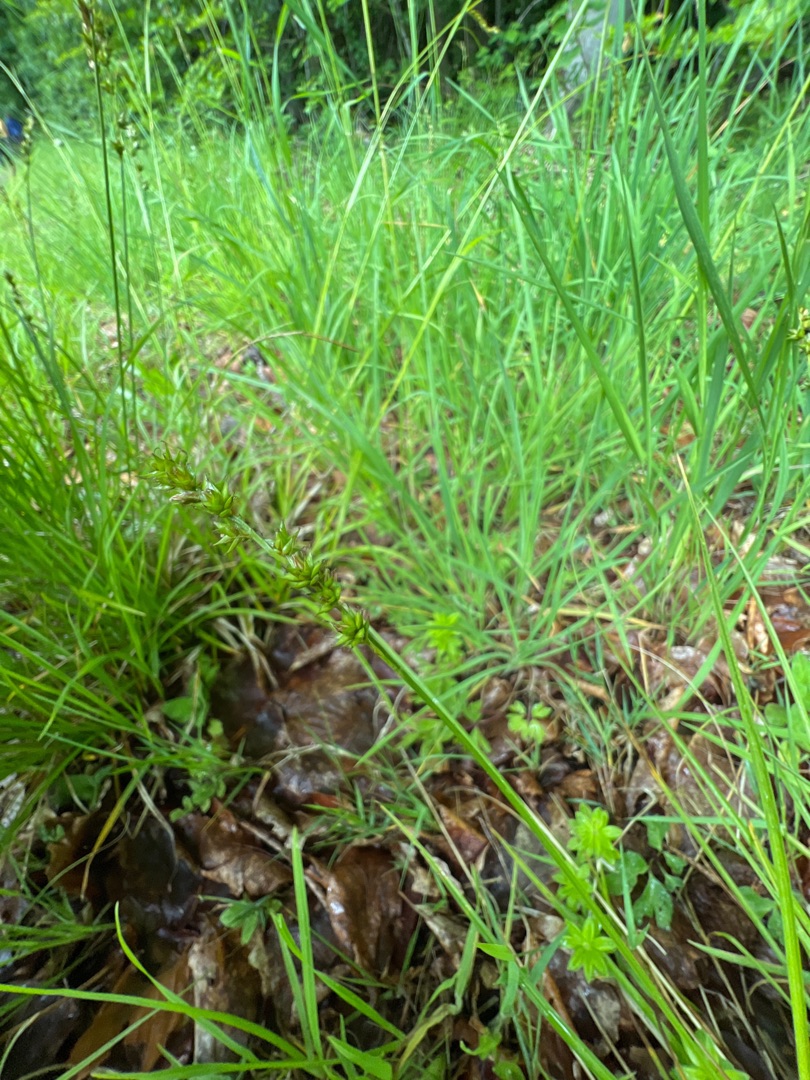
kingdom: Plantae
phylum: Tracheophyta
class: Liliopsida
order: Poales
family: Cyperaceae
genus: Carex
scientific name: Carex divulsa
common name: Mellembrudt star
